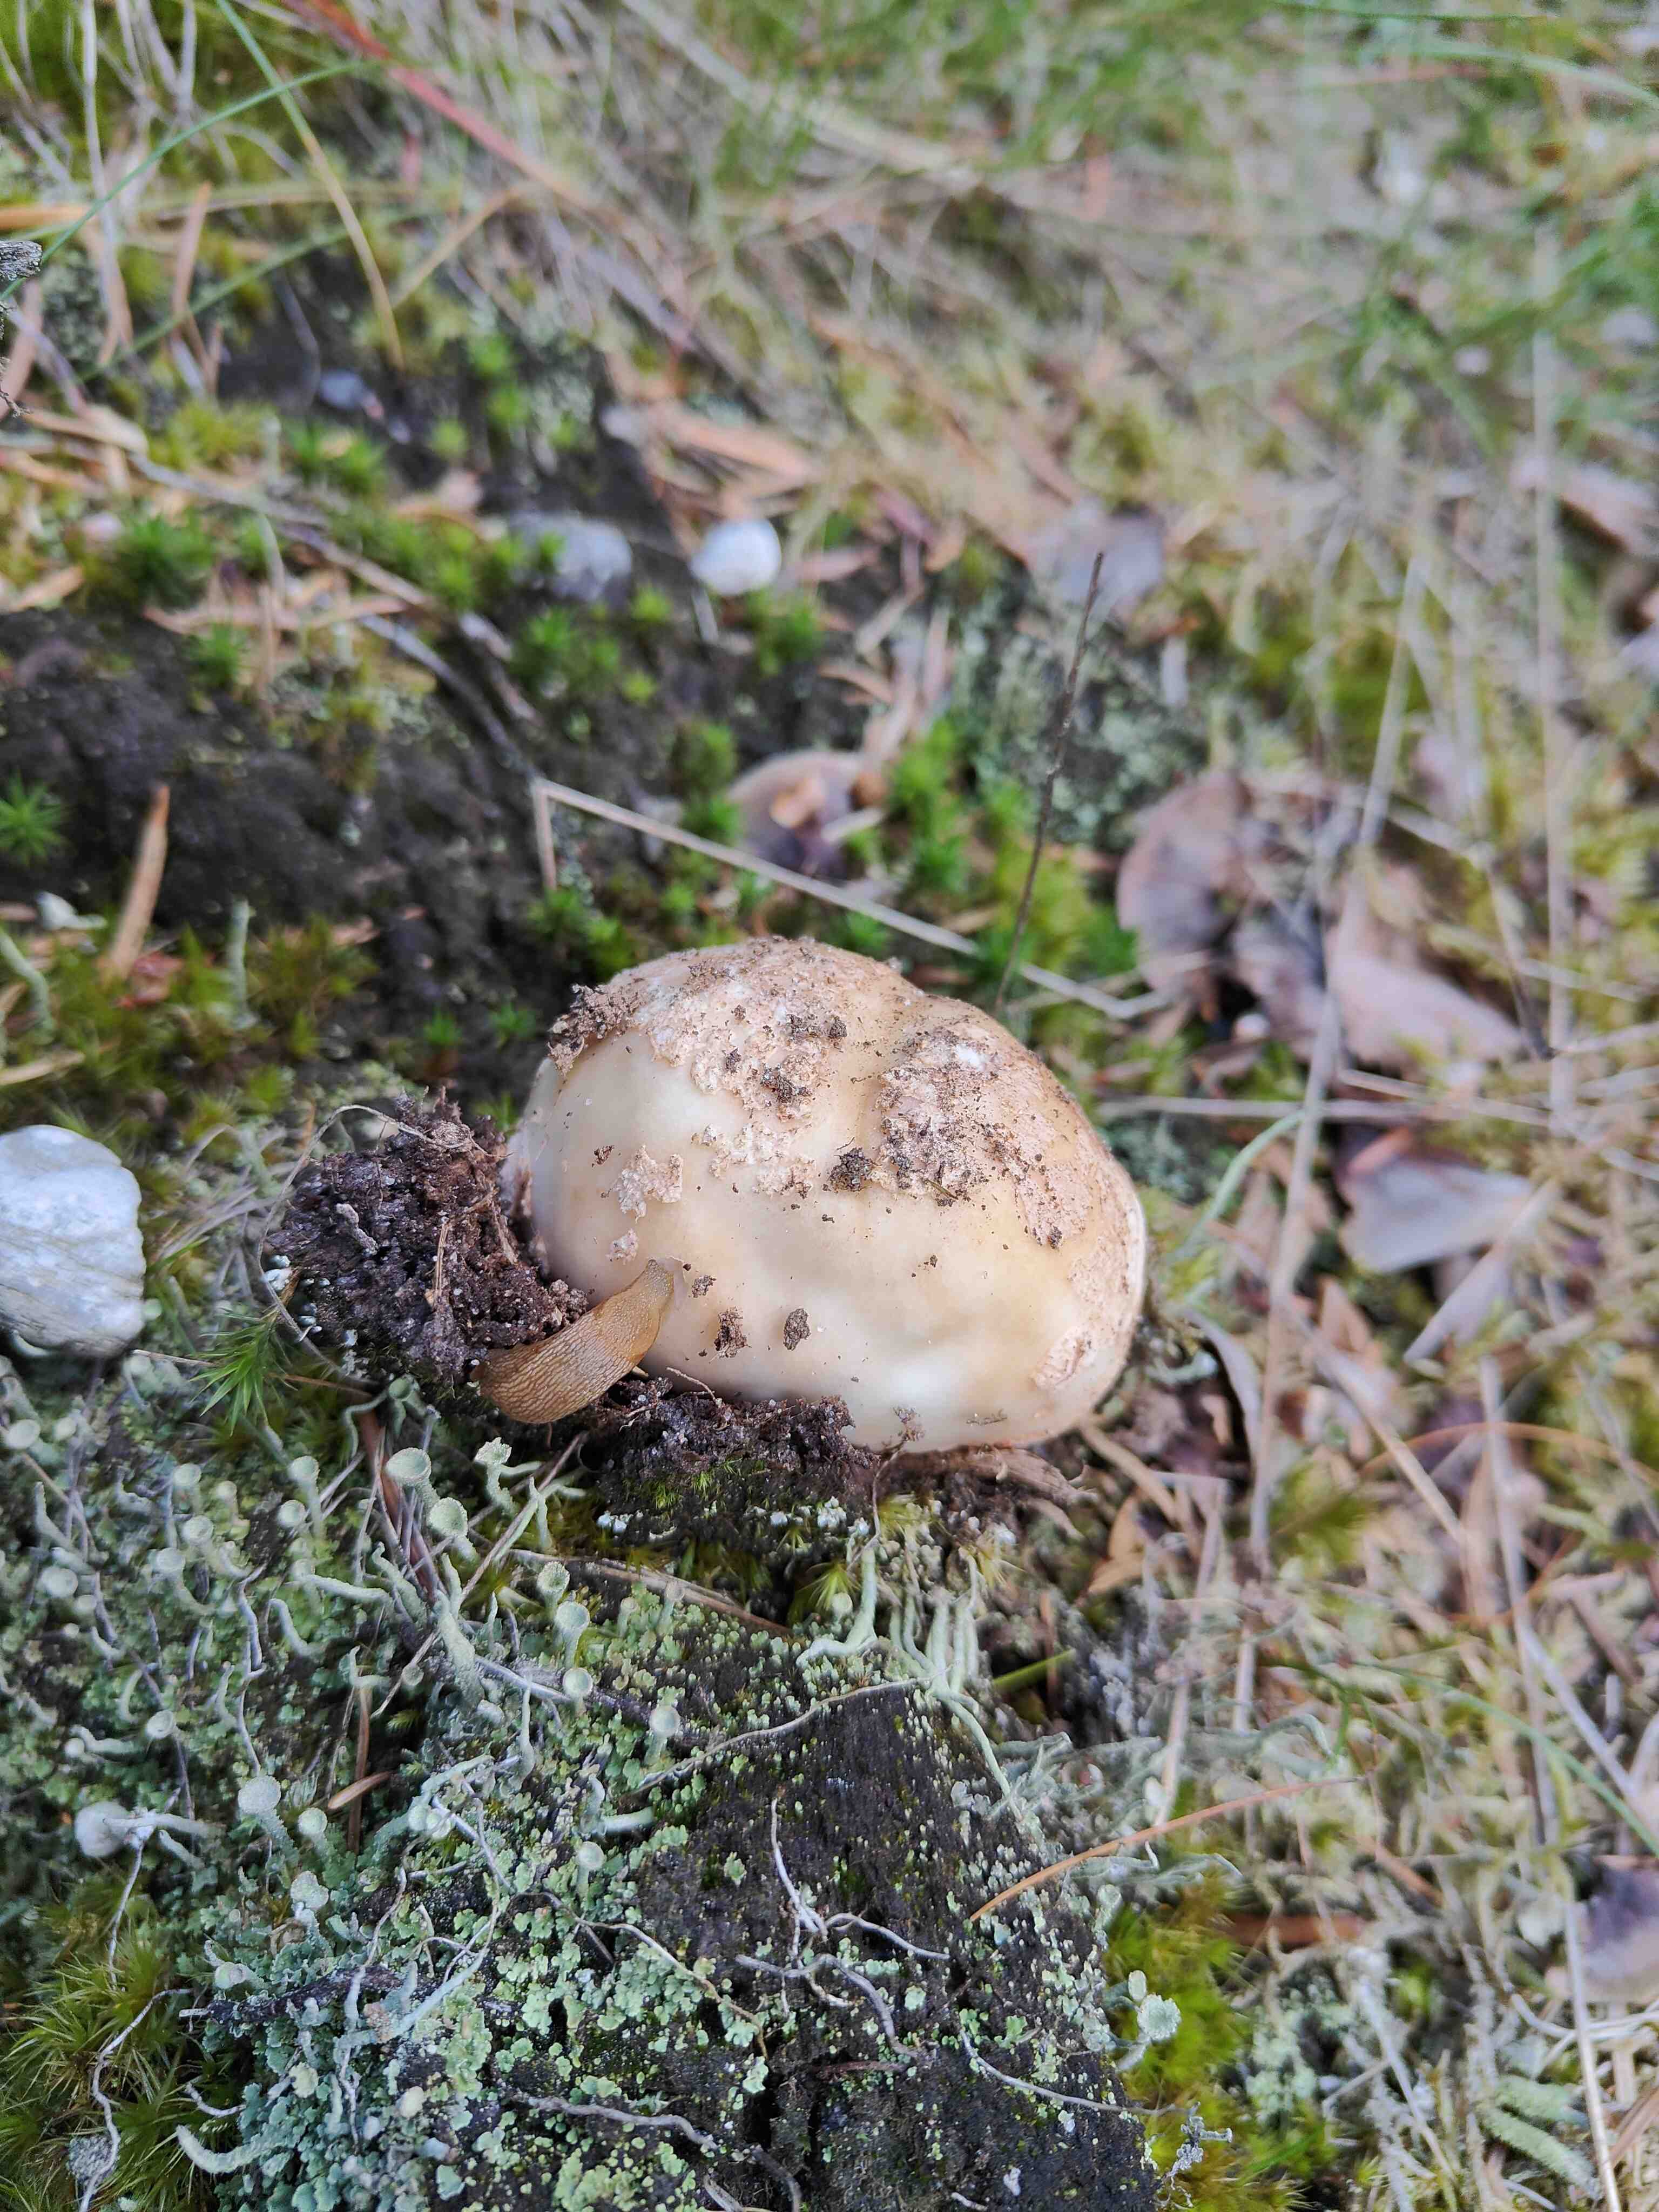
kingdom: Fungi
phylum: Basidiomycota
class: Agaricomycetes
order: Agaricales
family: Amanitaceae
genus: Amanita
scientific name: Amanita rubescens
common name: rødmende fluesvamp
